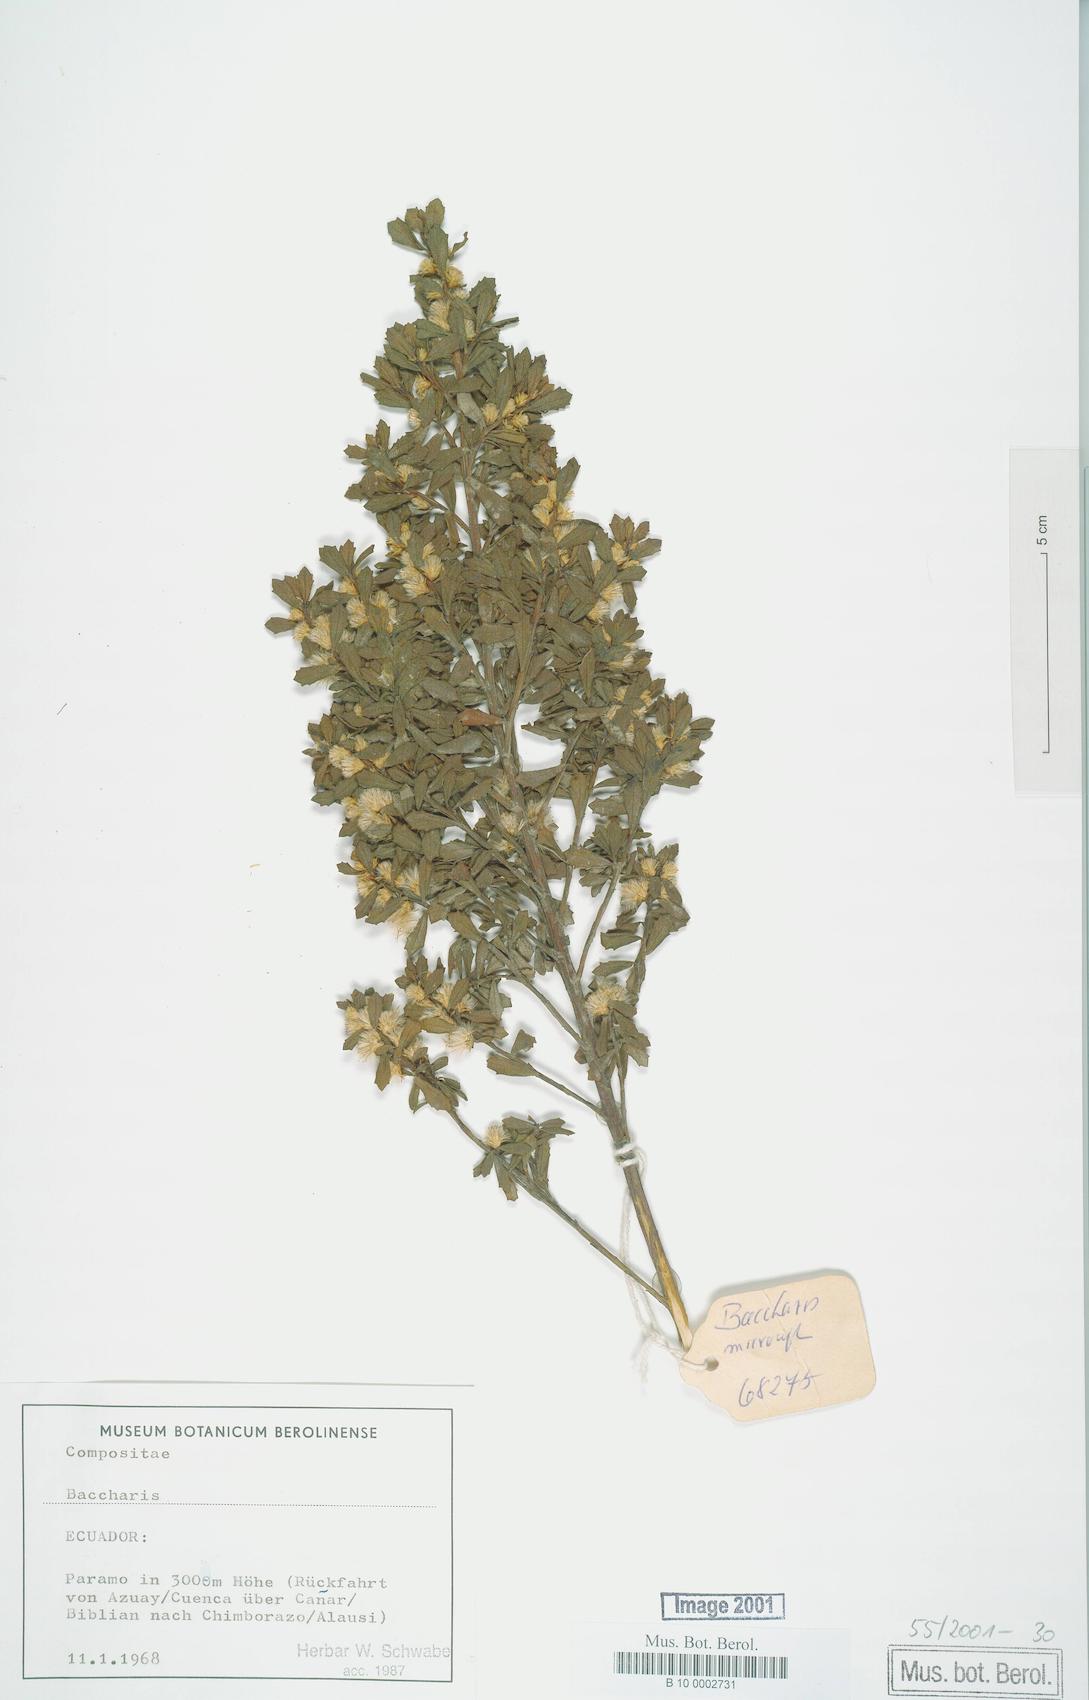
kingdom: Plantae
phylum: Tracheophyta
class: Magnoliopsida
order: Asterales
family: Asteraceae
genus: Baccharis
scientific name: Baccharis
